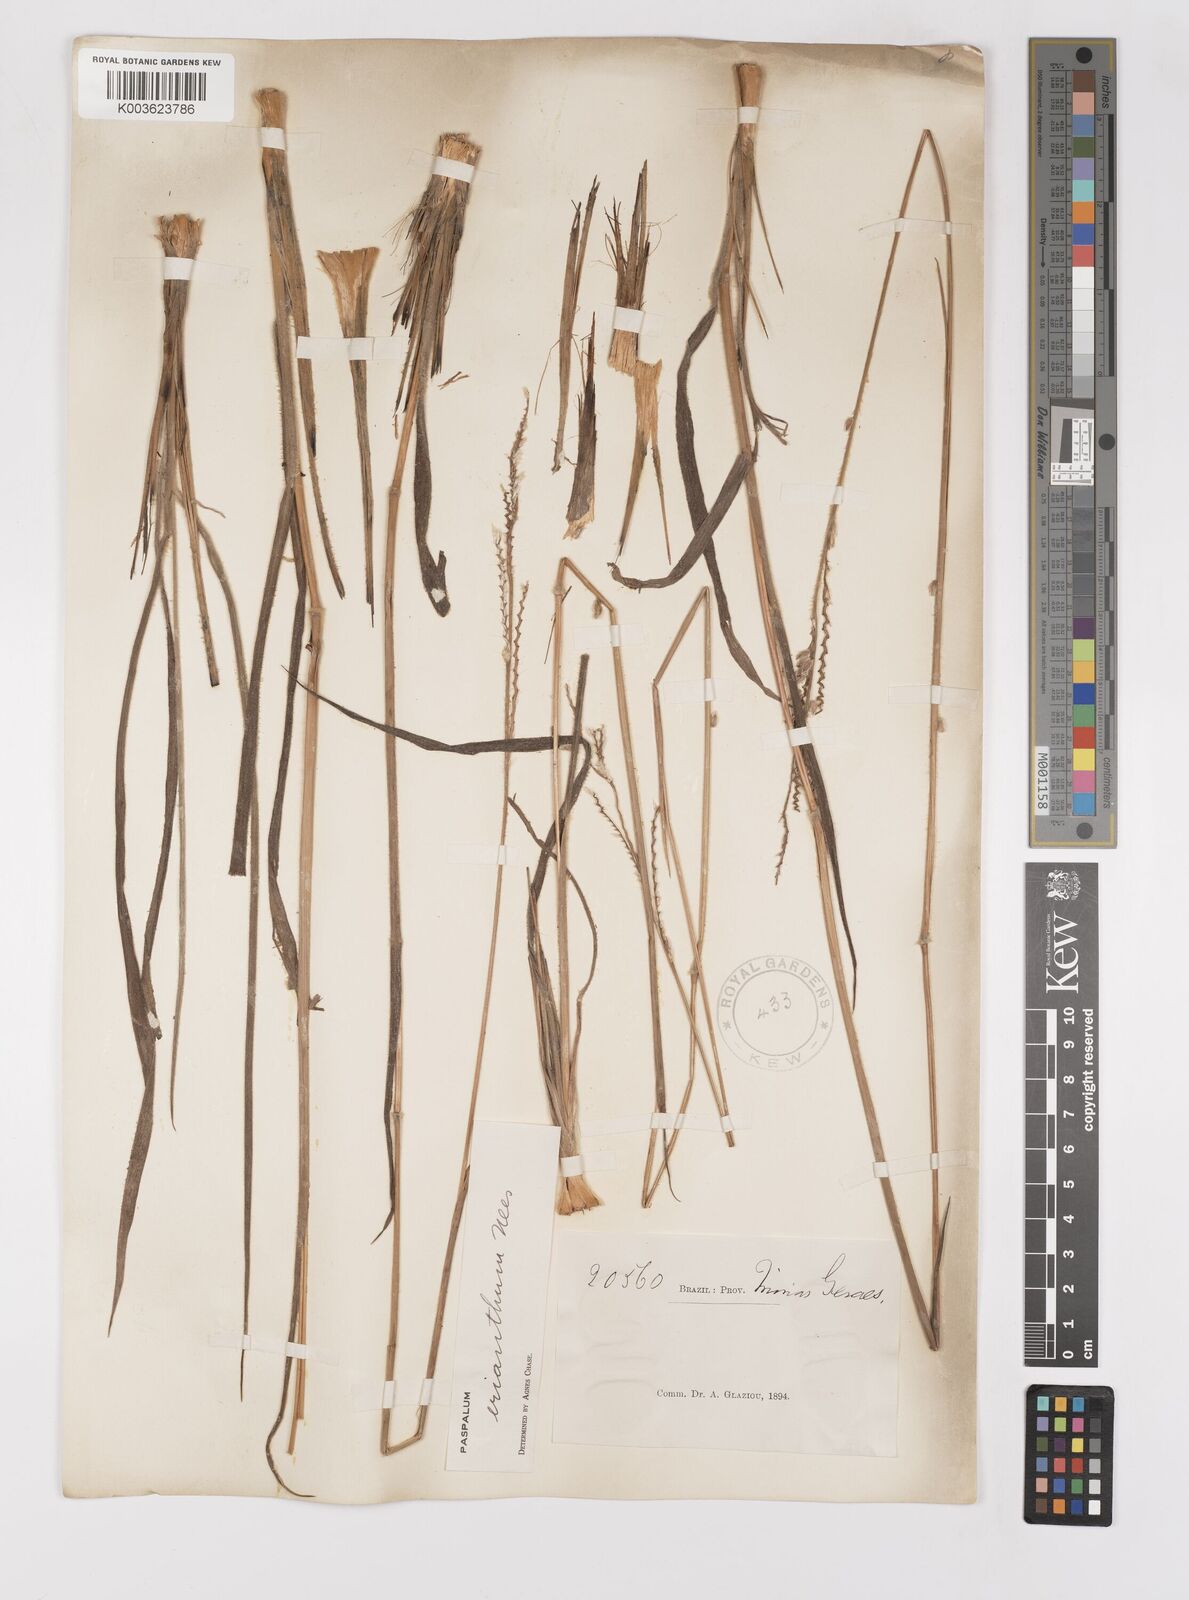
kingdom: Plantae
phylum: Tracheophyta
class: Liliopsida
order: Poales
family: Poaceae
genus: Paspalum
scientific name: Paspalum erianthum
